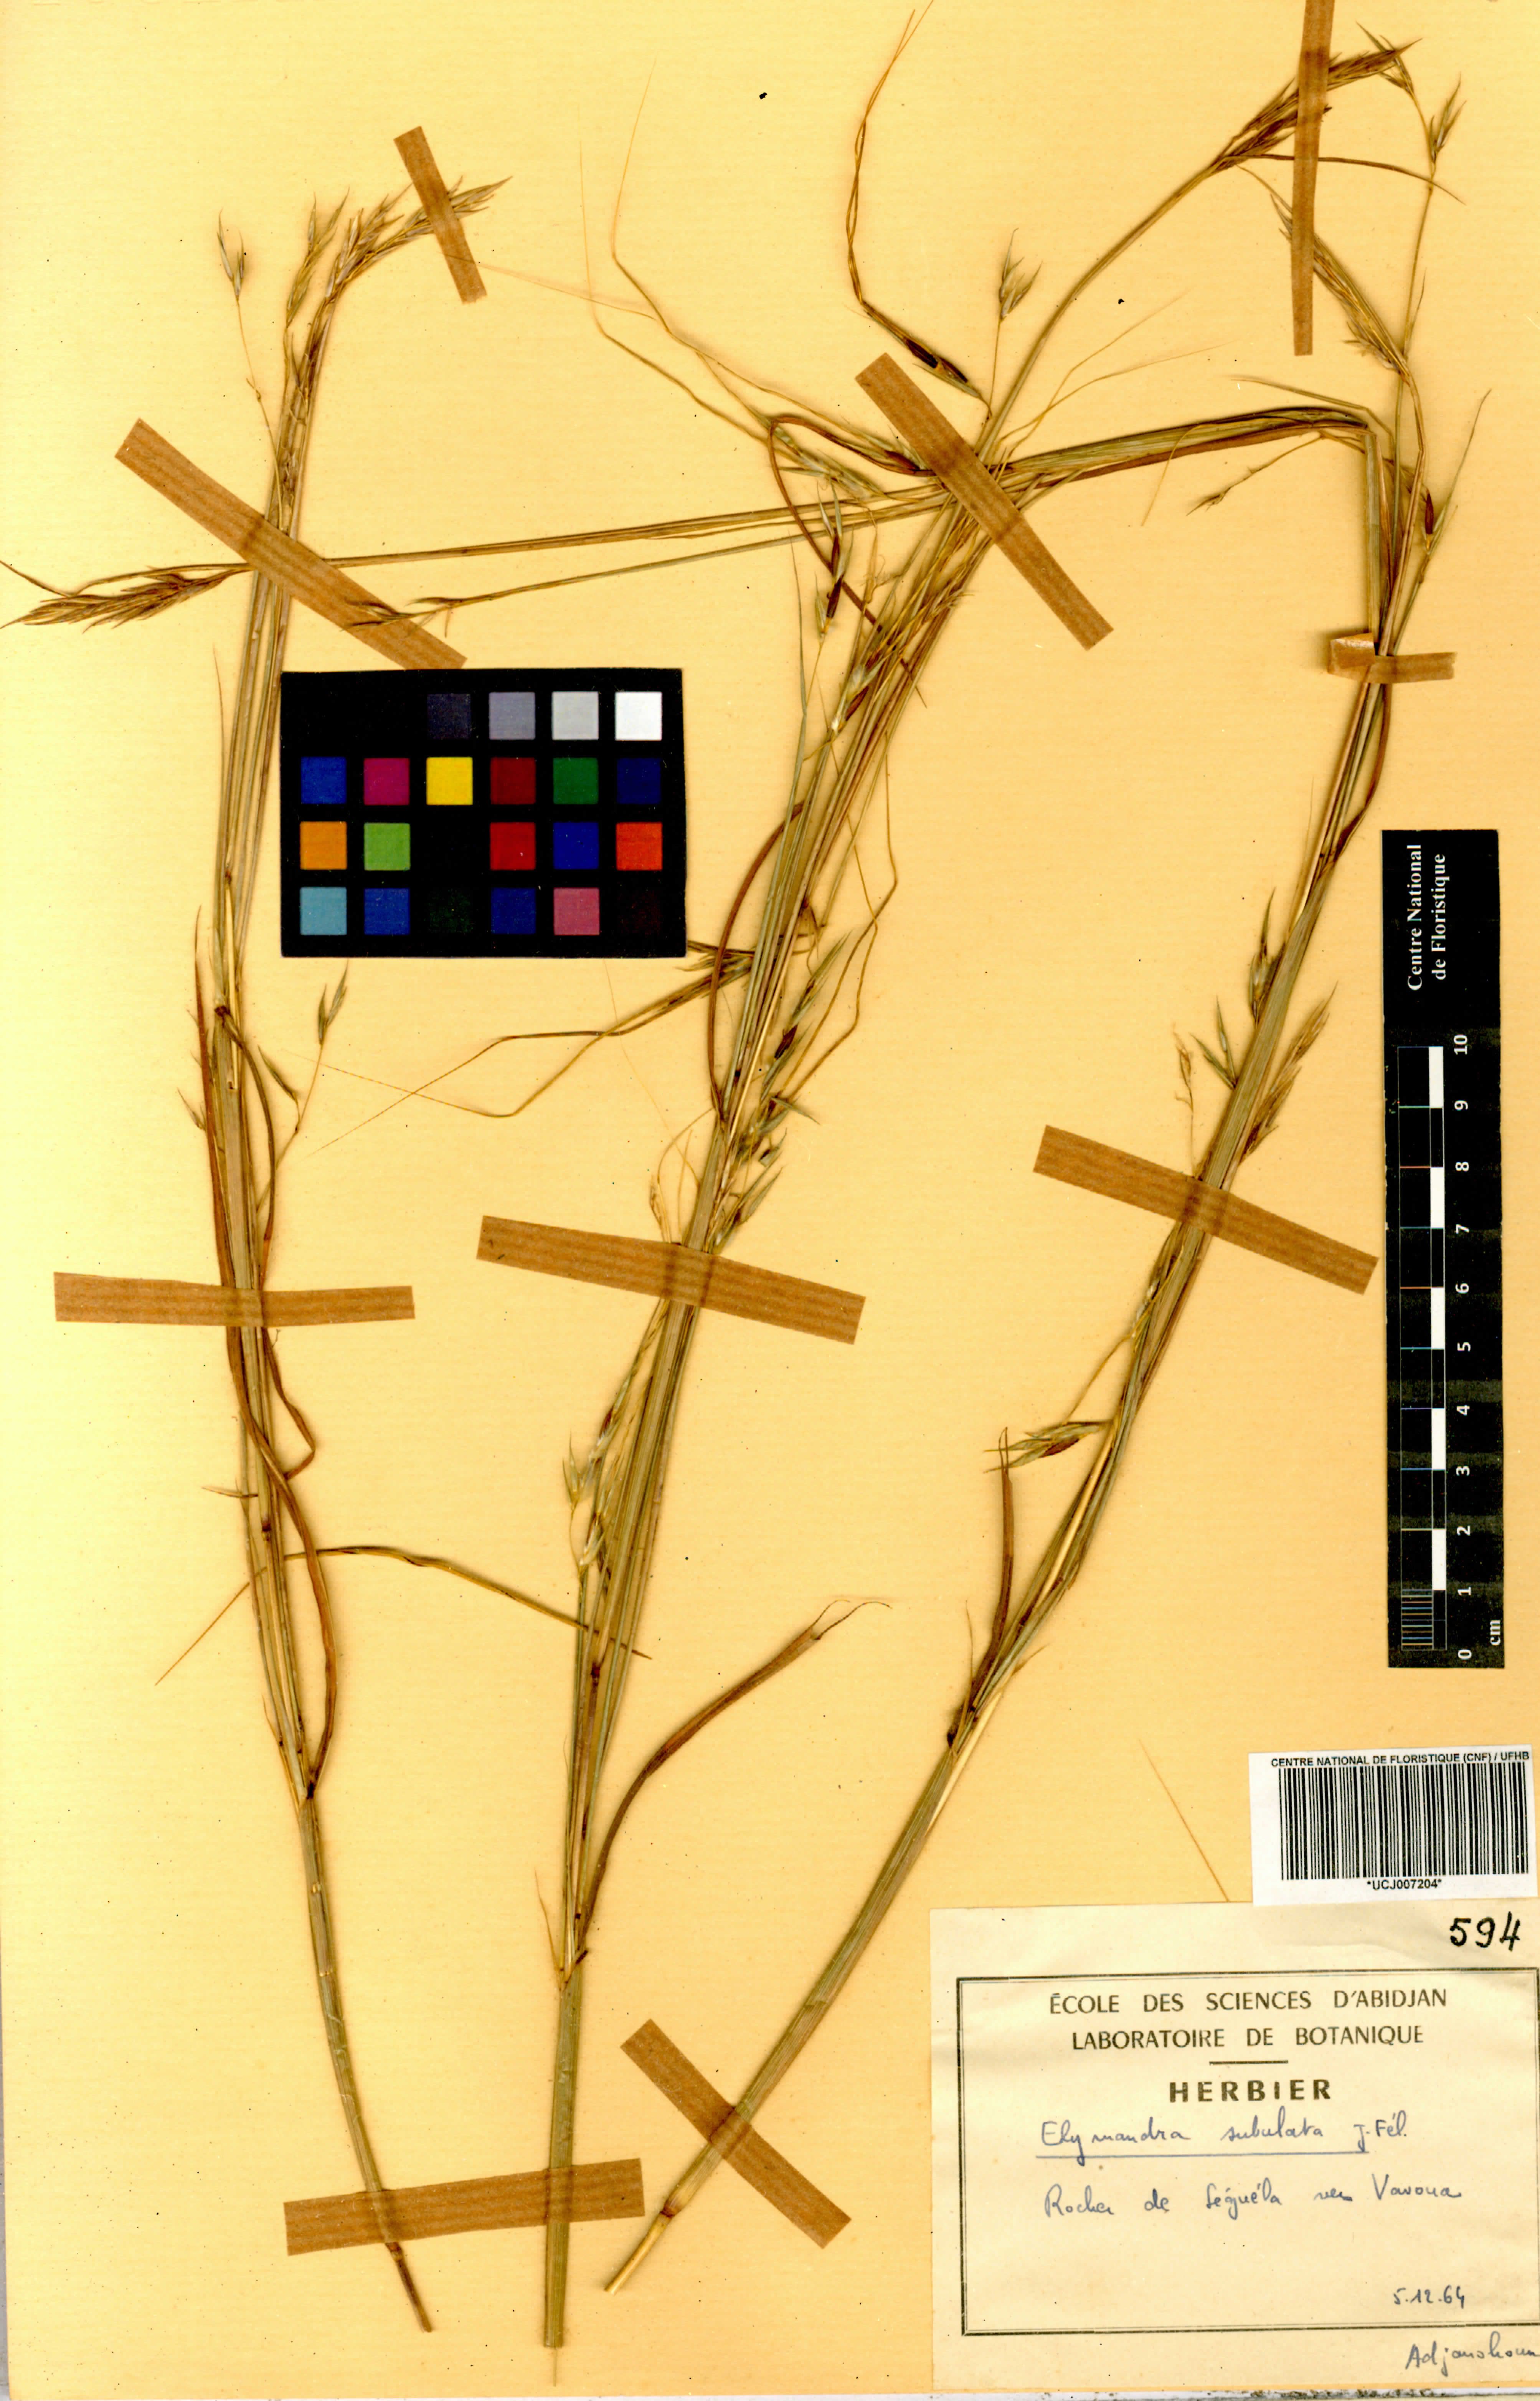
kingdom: Plantae
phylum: Tracheophyta
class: Liliopsida
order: Poales
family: Poaceae
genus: Elymandra
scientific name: Elymandra subulata
